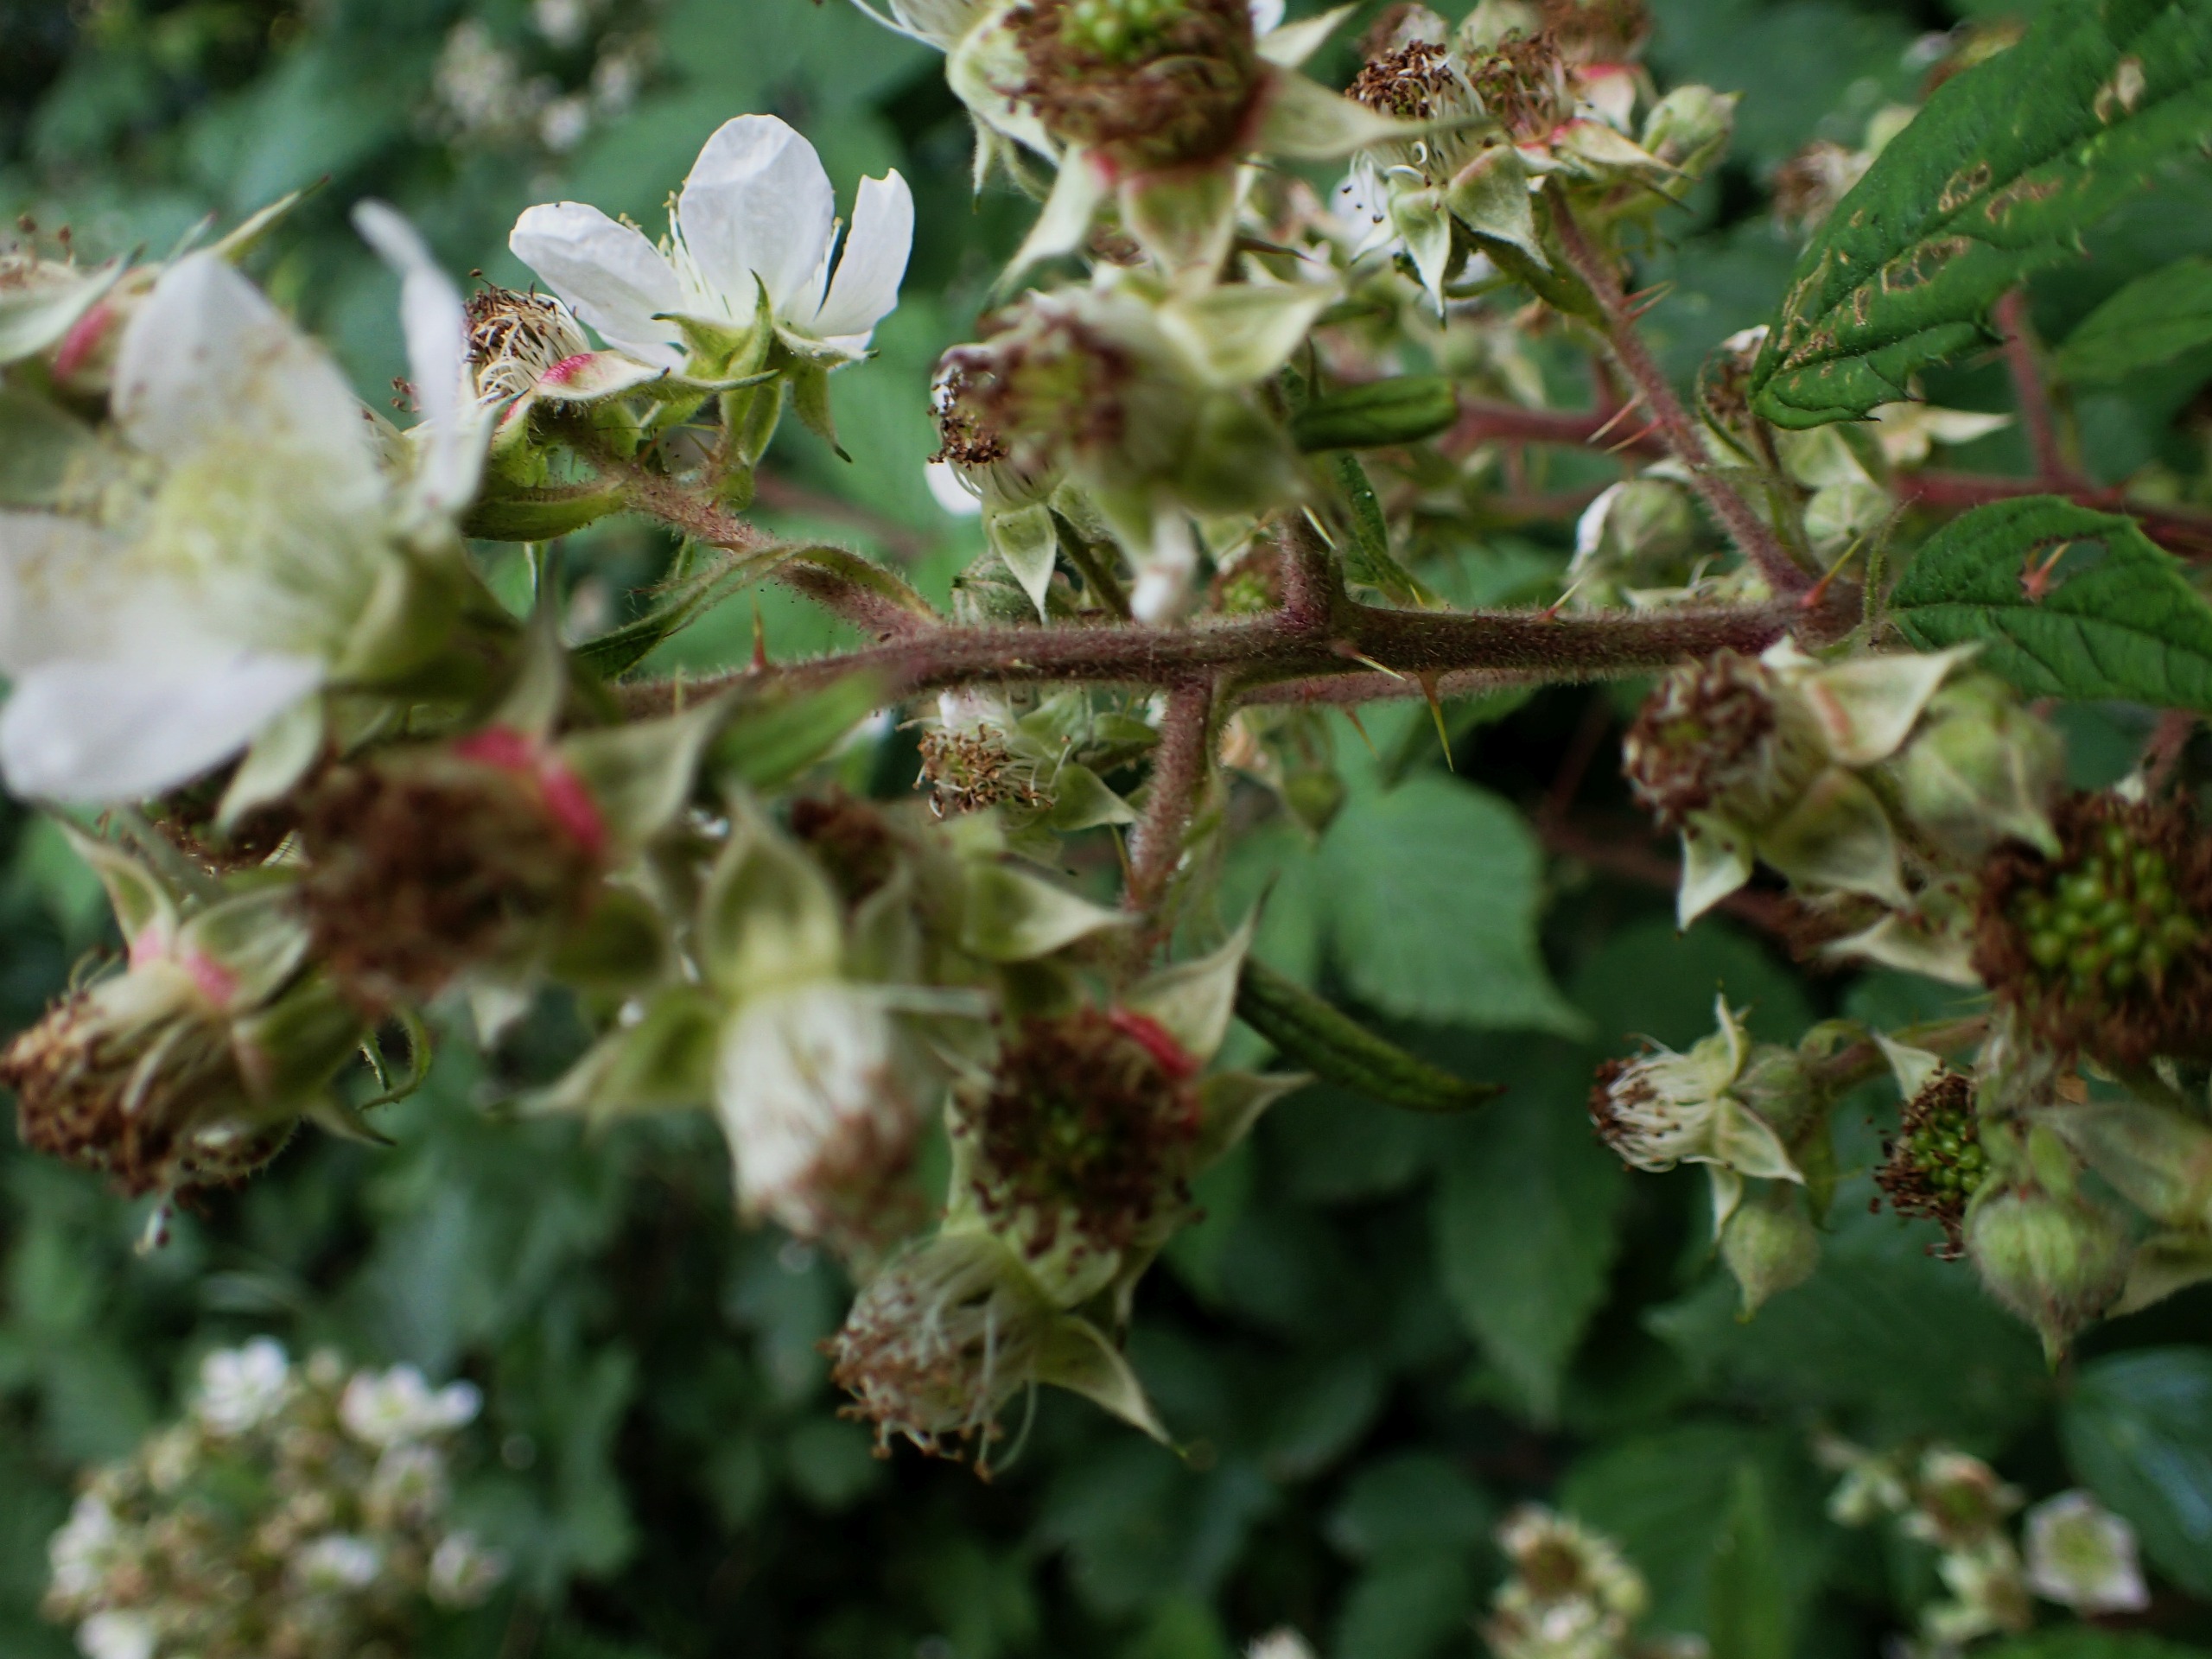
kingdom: Plantae
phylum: Tracheophyta
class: Magnoliopsida
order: Rosales
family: Rosaceae
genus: Rubus
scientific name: Rubus radula
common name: Rasperu brombær
